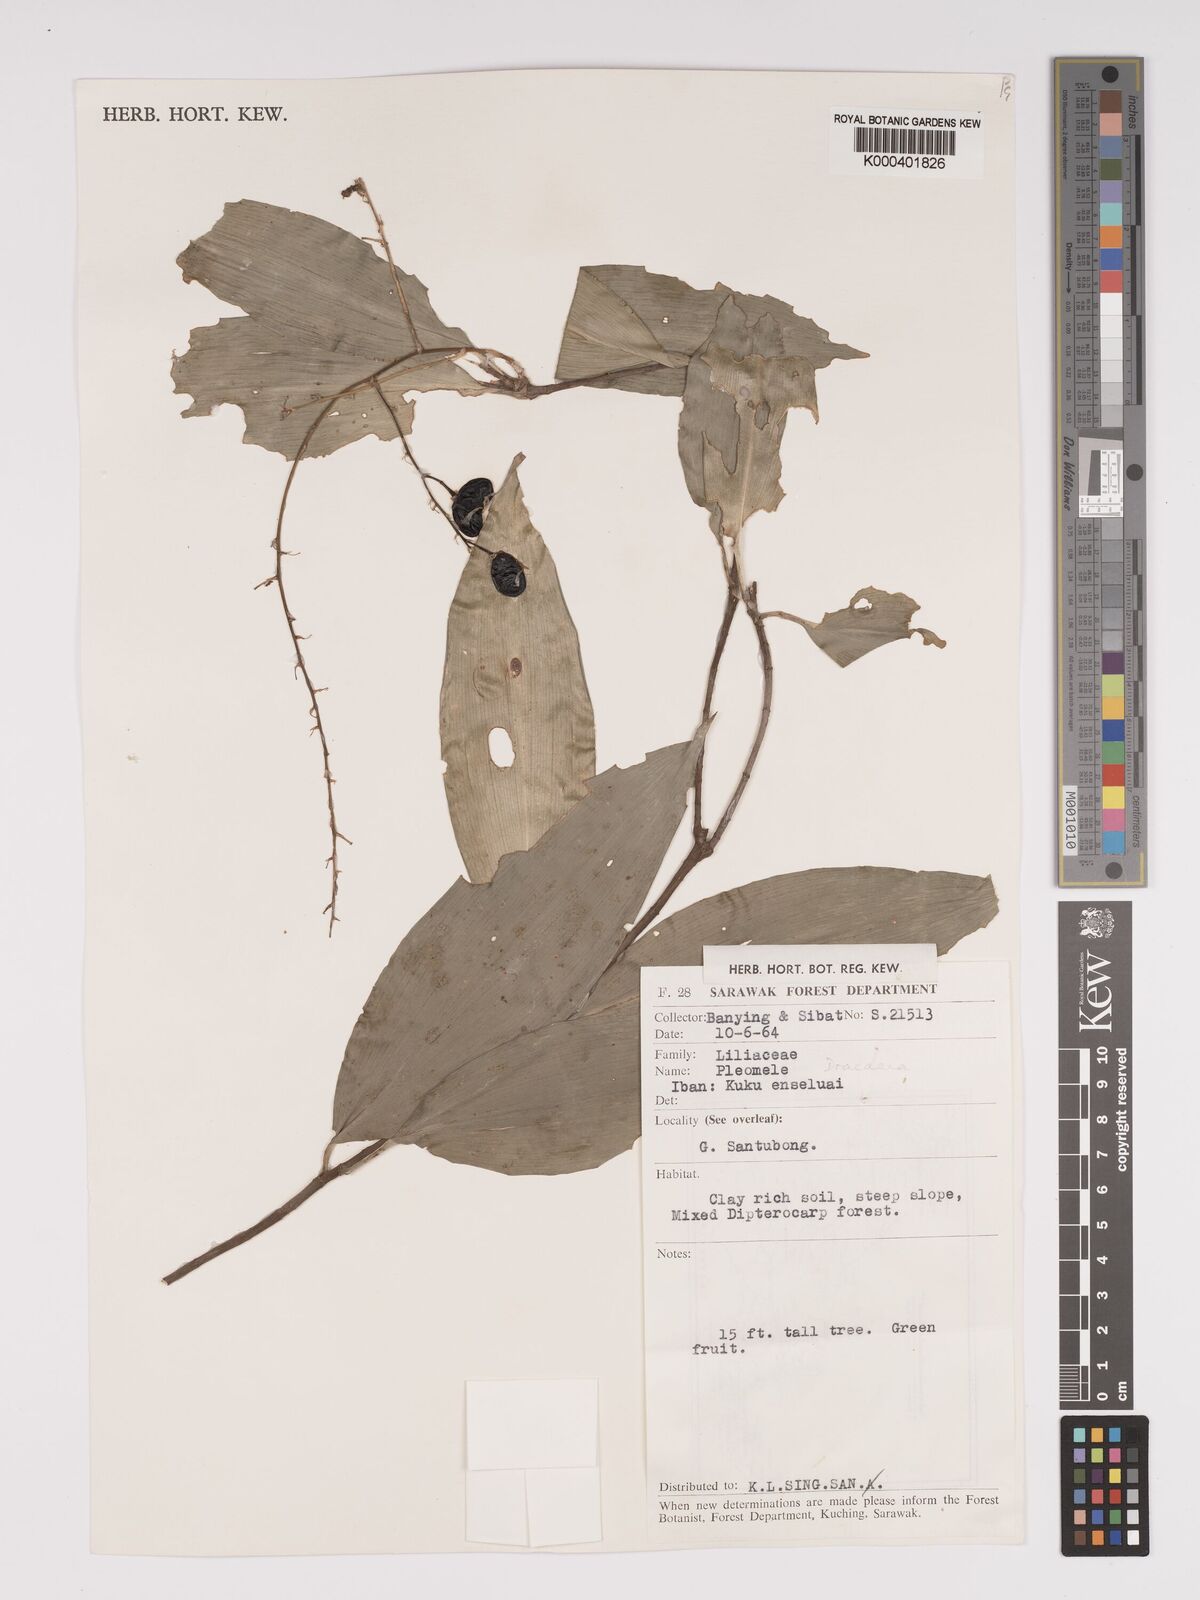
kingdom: Plantae
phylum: Tracheophyta
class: Liliopsida
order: Asparagales
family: Asparagaceae
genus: Dracaena
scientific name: Dracaena
